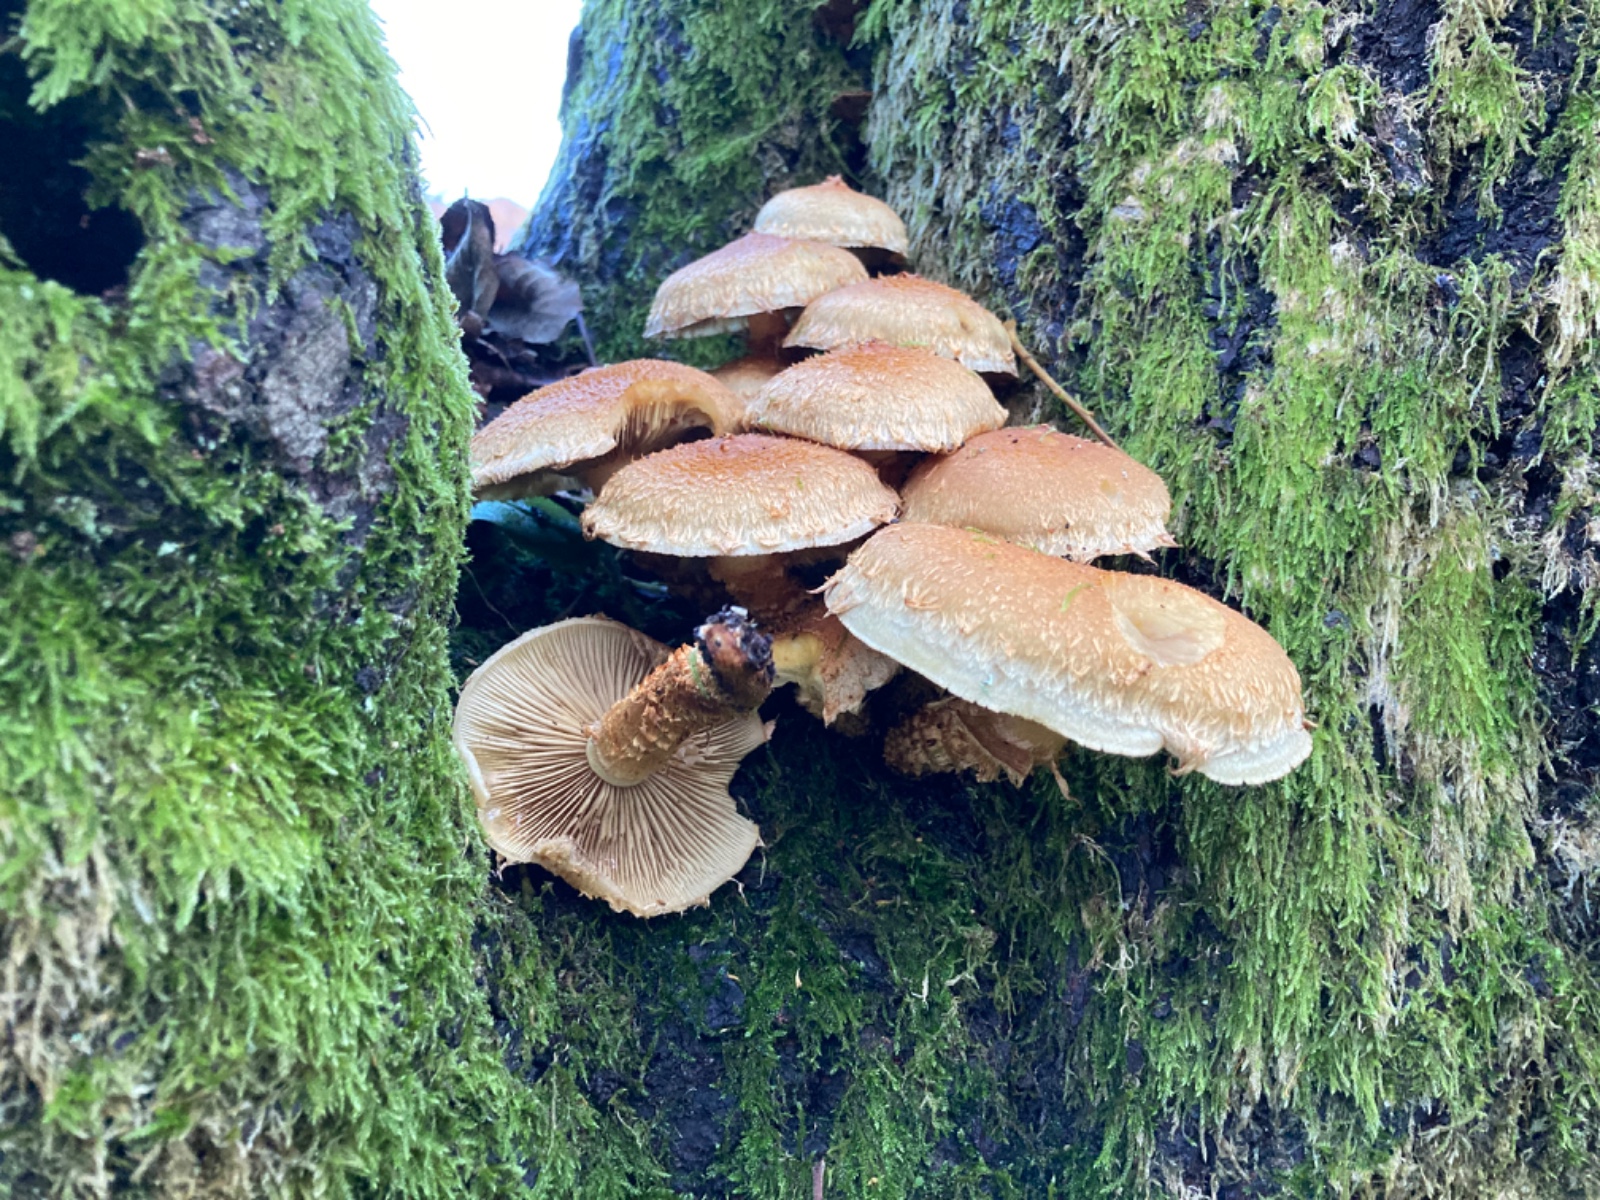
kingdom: Fungi
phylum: Basidiomycota
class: Agaricomycetes
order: Agaricales
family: Strophariaceae
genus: Pholiota
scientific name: Pholiota squarrosa
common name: krumskællet skælhat
